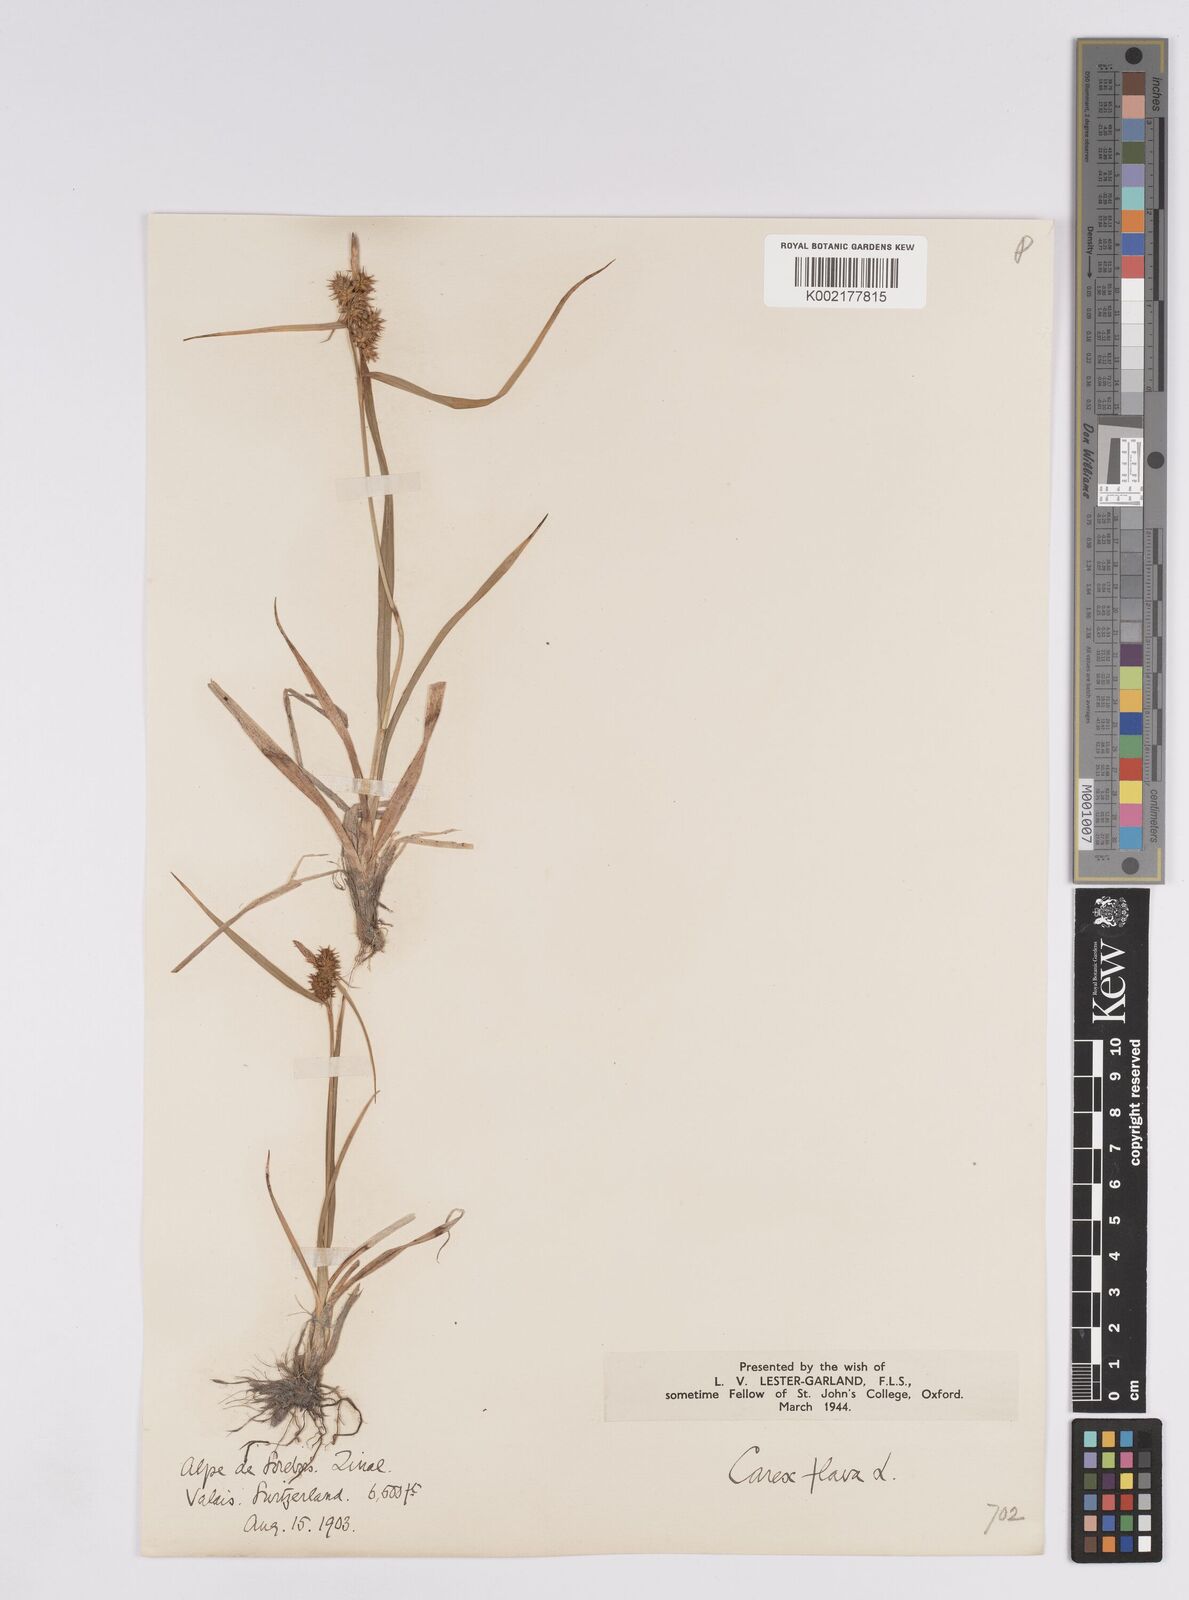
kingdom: Plantae
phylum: Tracheophyta
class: Liliopsida
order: Poales
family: Cyperaceae
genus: Carex
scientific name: Carex flava
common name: Large yellow-sedge
